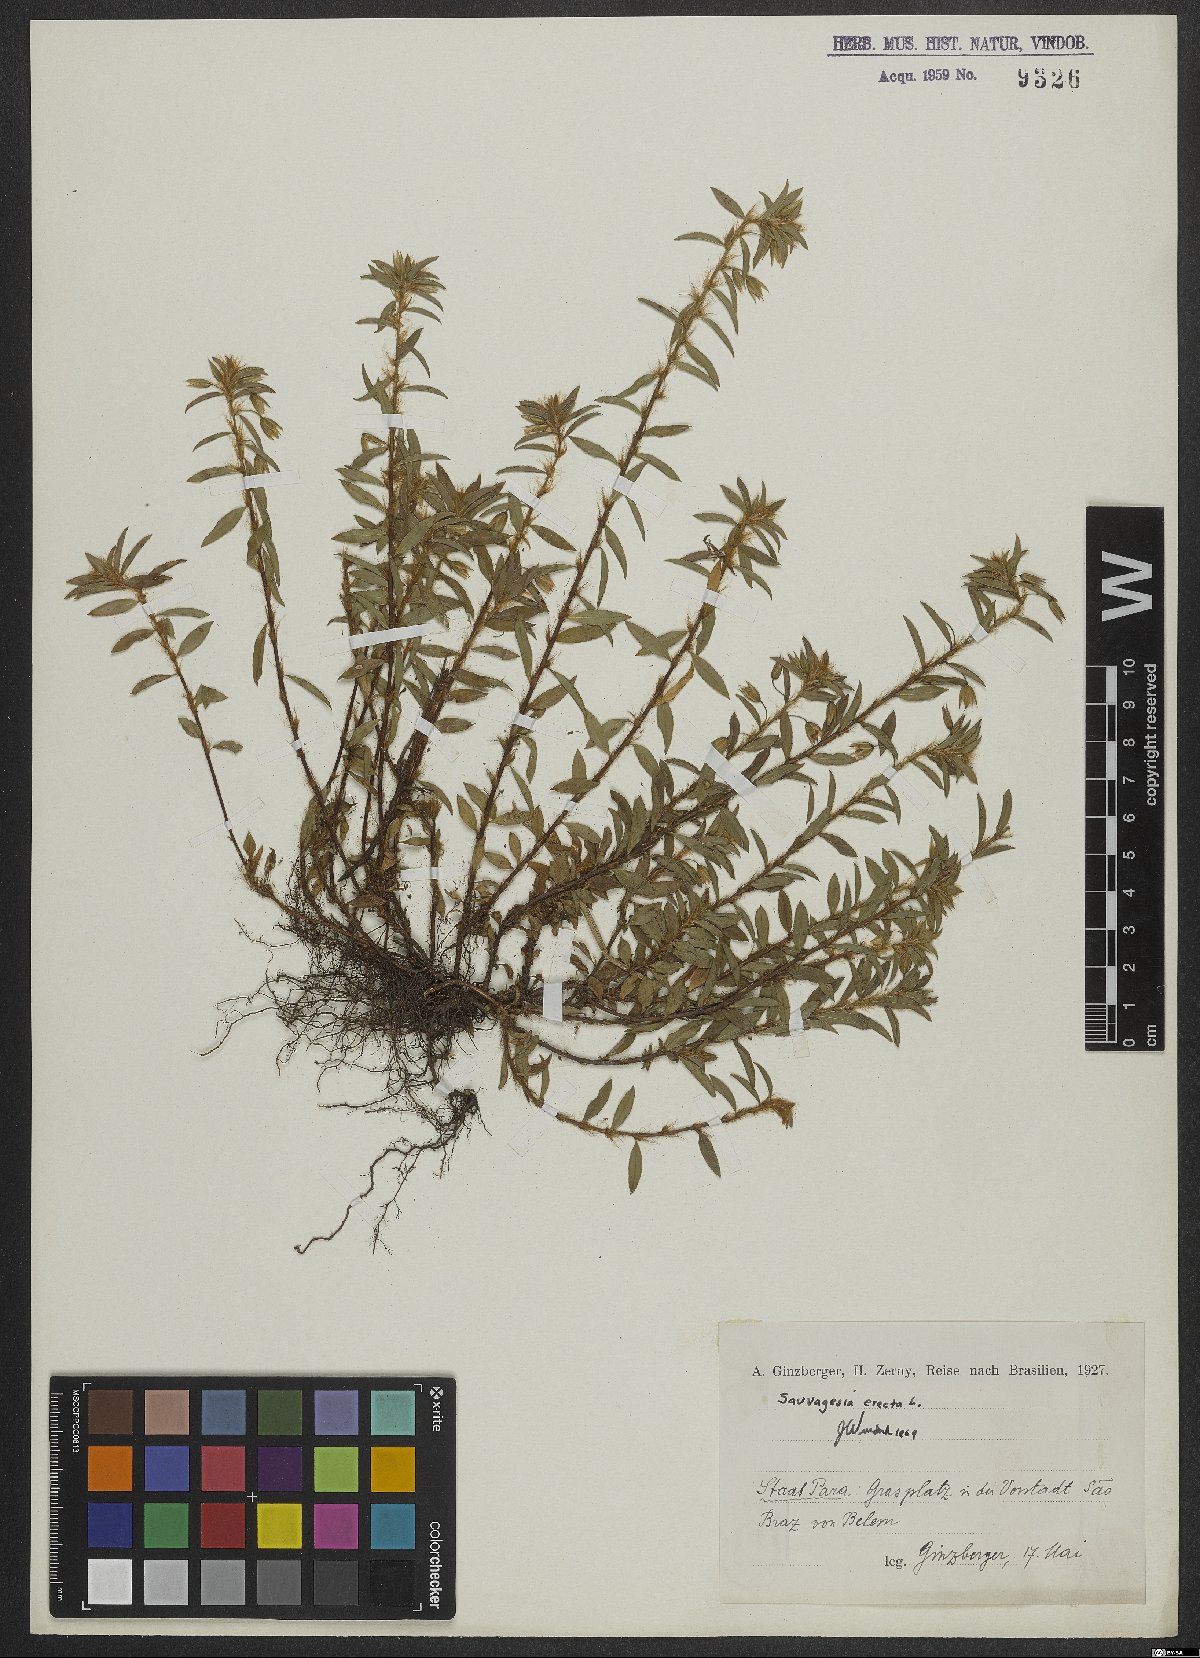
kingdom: Plantae
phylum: Tracheophyta
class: Magnoliopsida
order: Malpighiales
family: Ochnaceae
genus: Sauvagesia
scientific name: Sauvagesia erecta
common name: Creole tea
